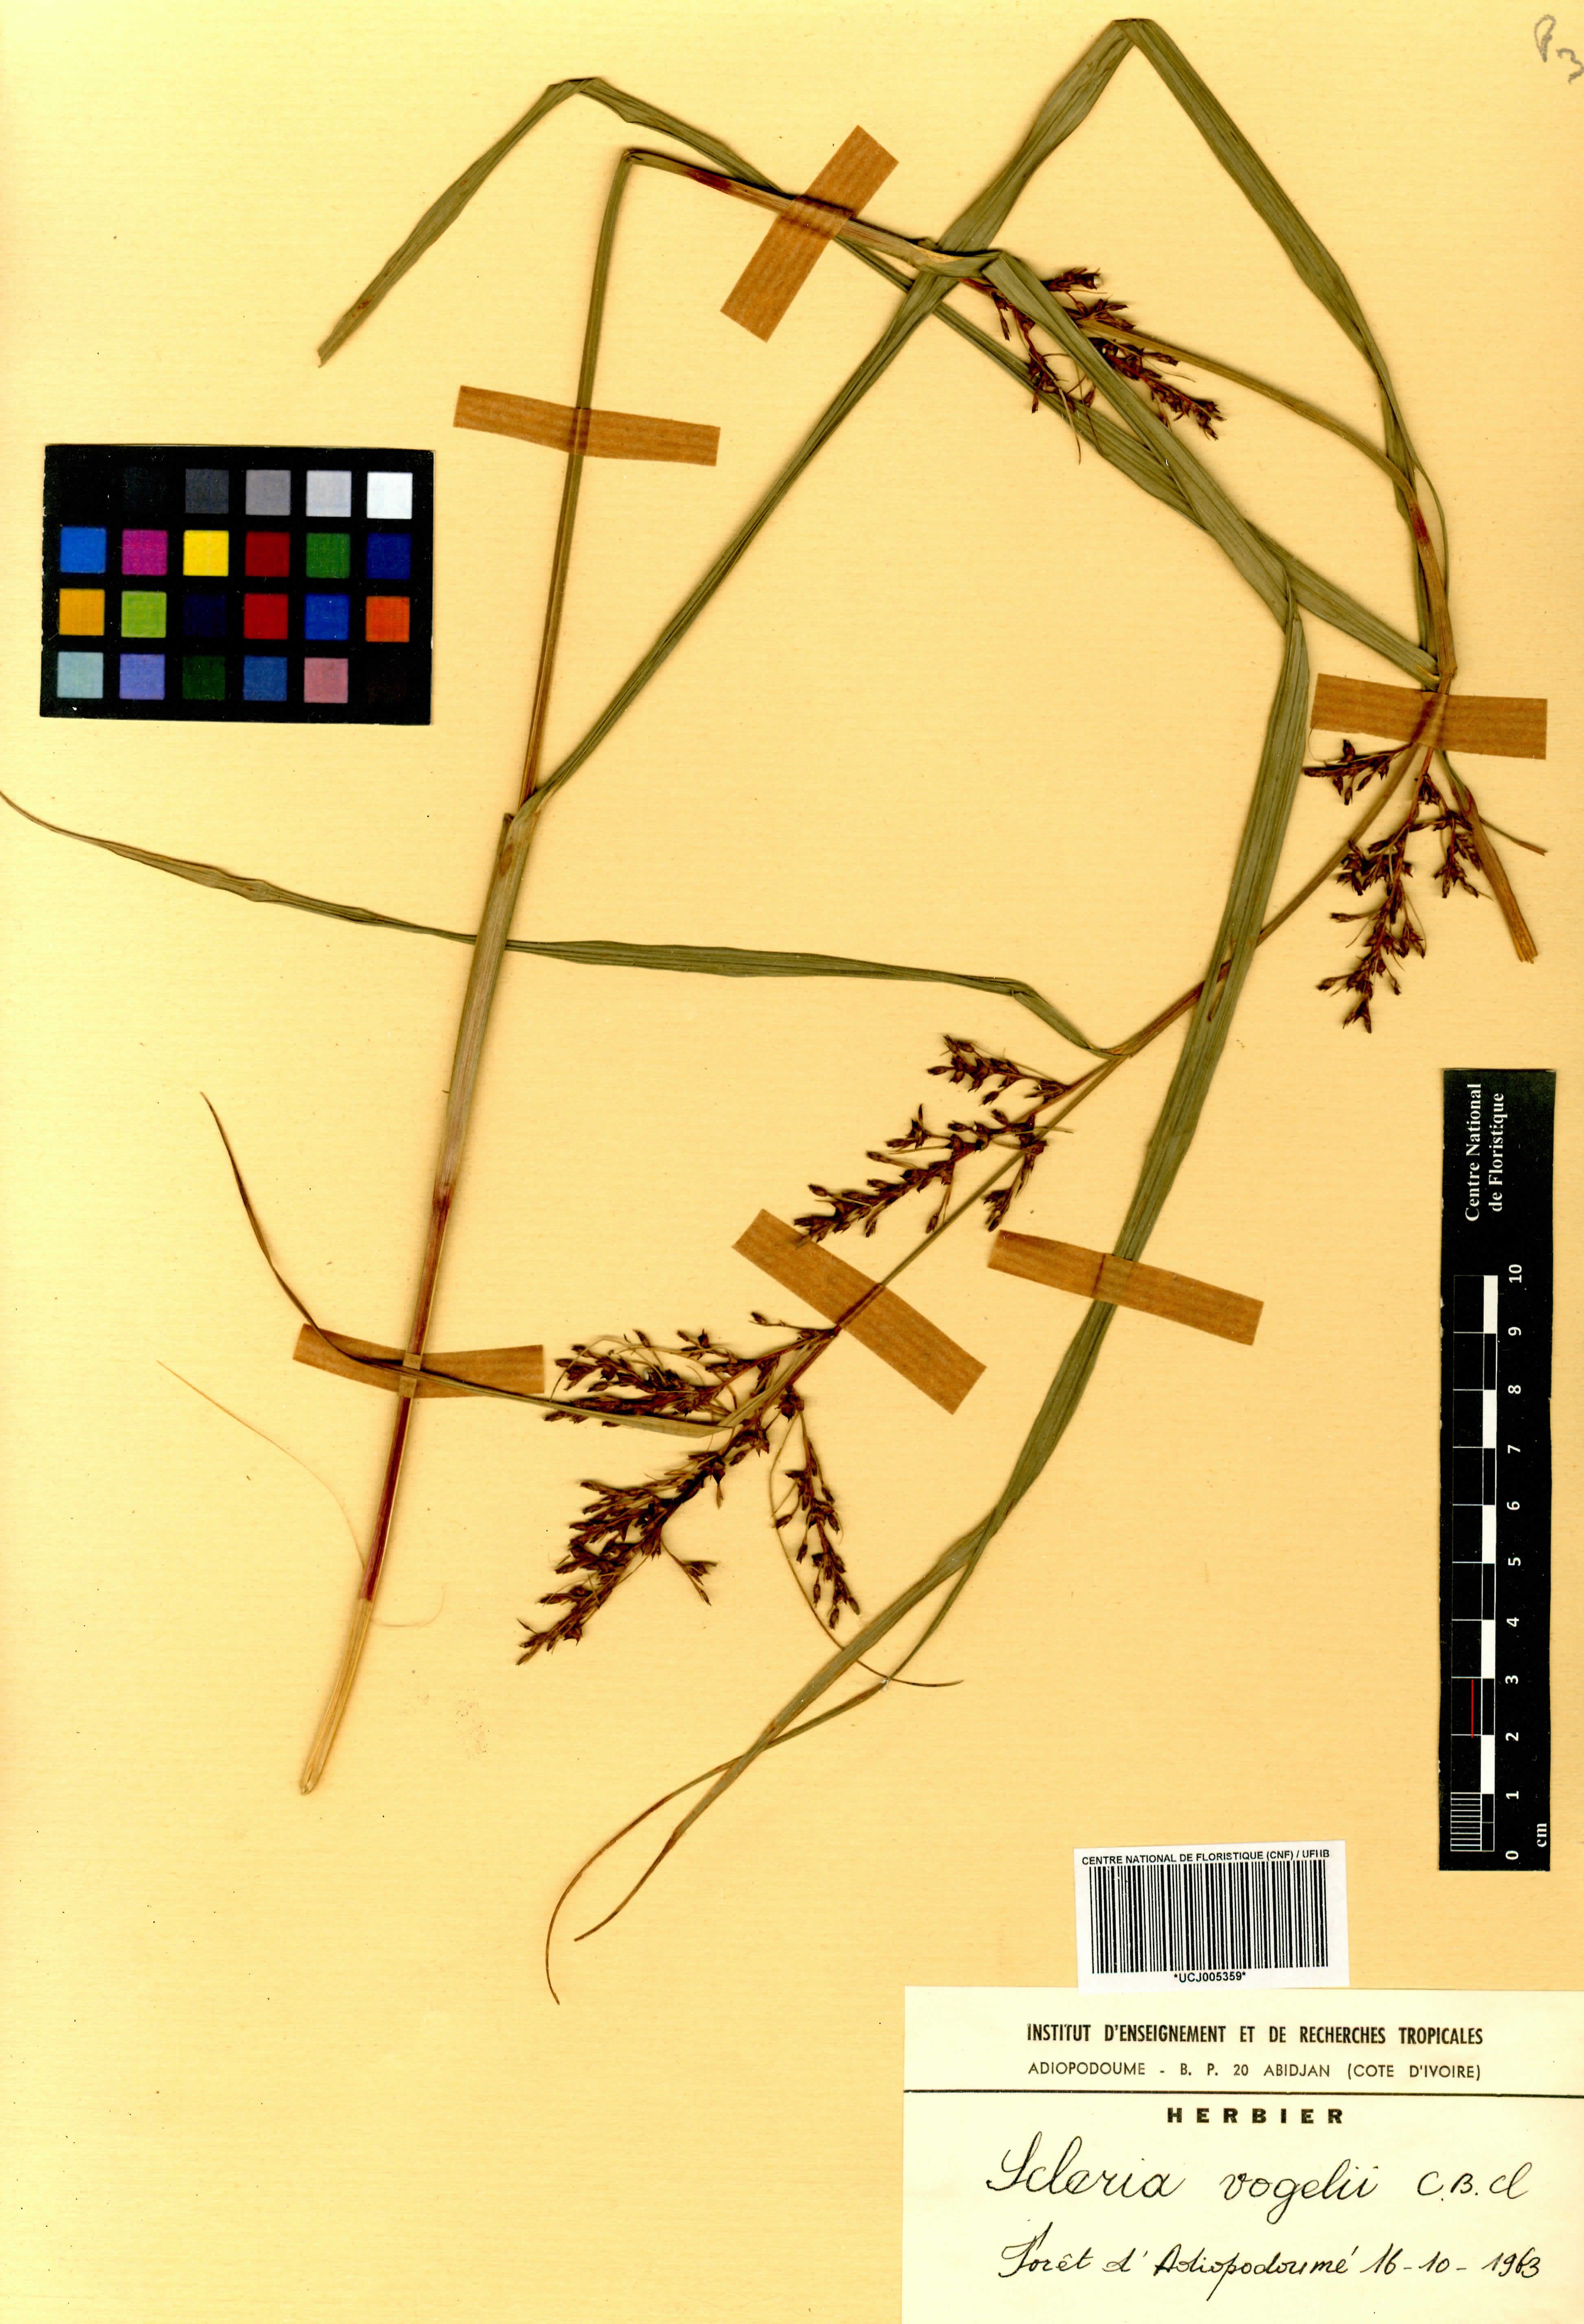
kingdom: Plantae
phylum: Tracheophyta
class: Liliopsida
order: Poales
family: Cyperaceae
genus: Scleria
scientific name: Scleria vogelii
